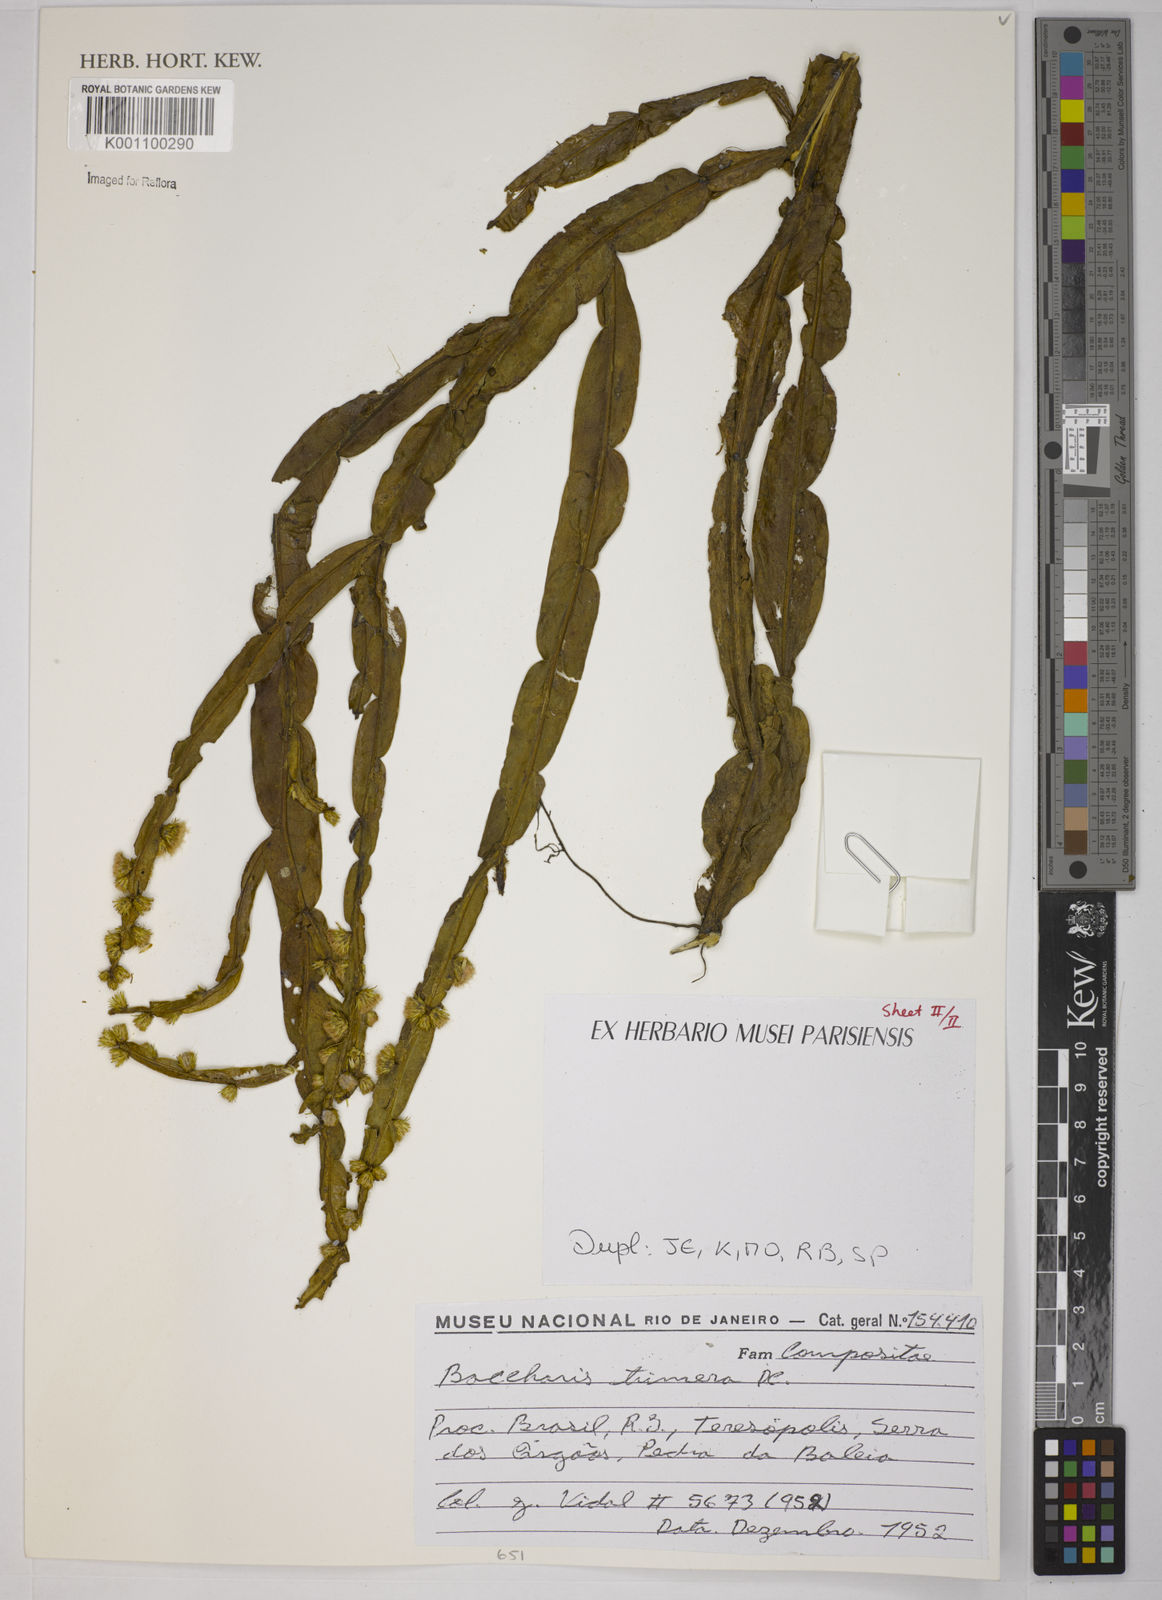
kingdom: Plantae
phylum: Tracheophyta
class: Magnoliopsida
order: Asterales
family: Asteraceae
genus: Baccharis
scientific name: Baccharis trimera
